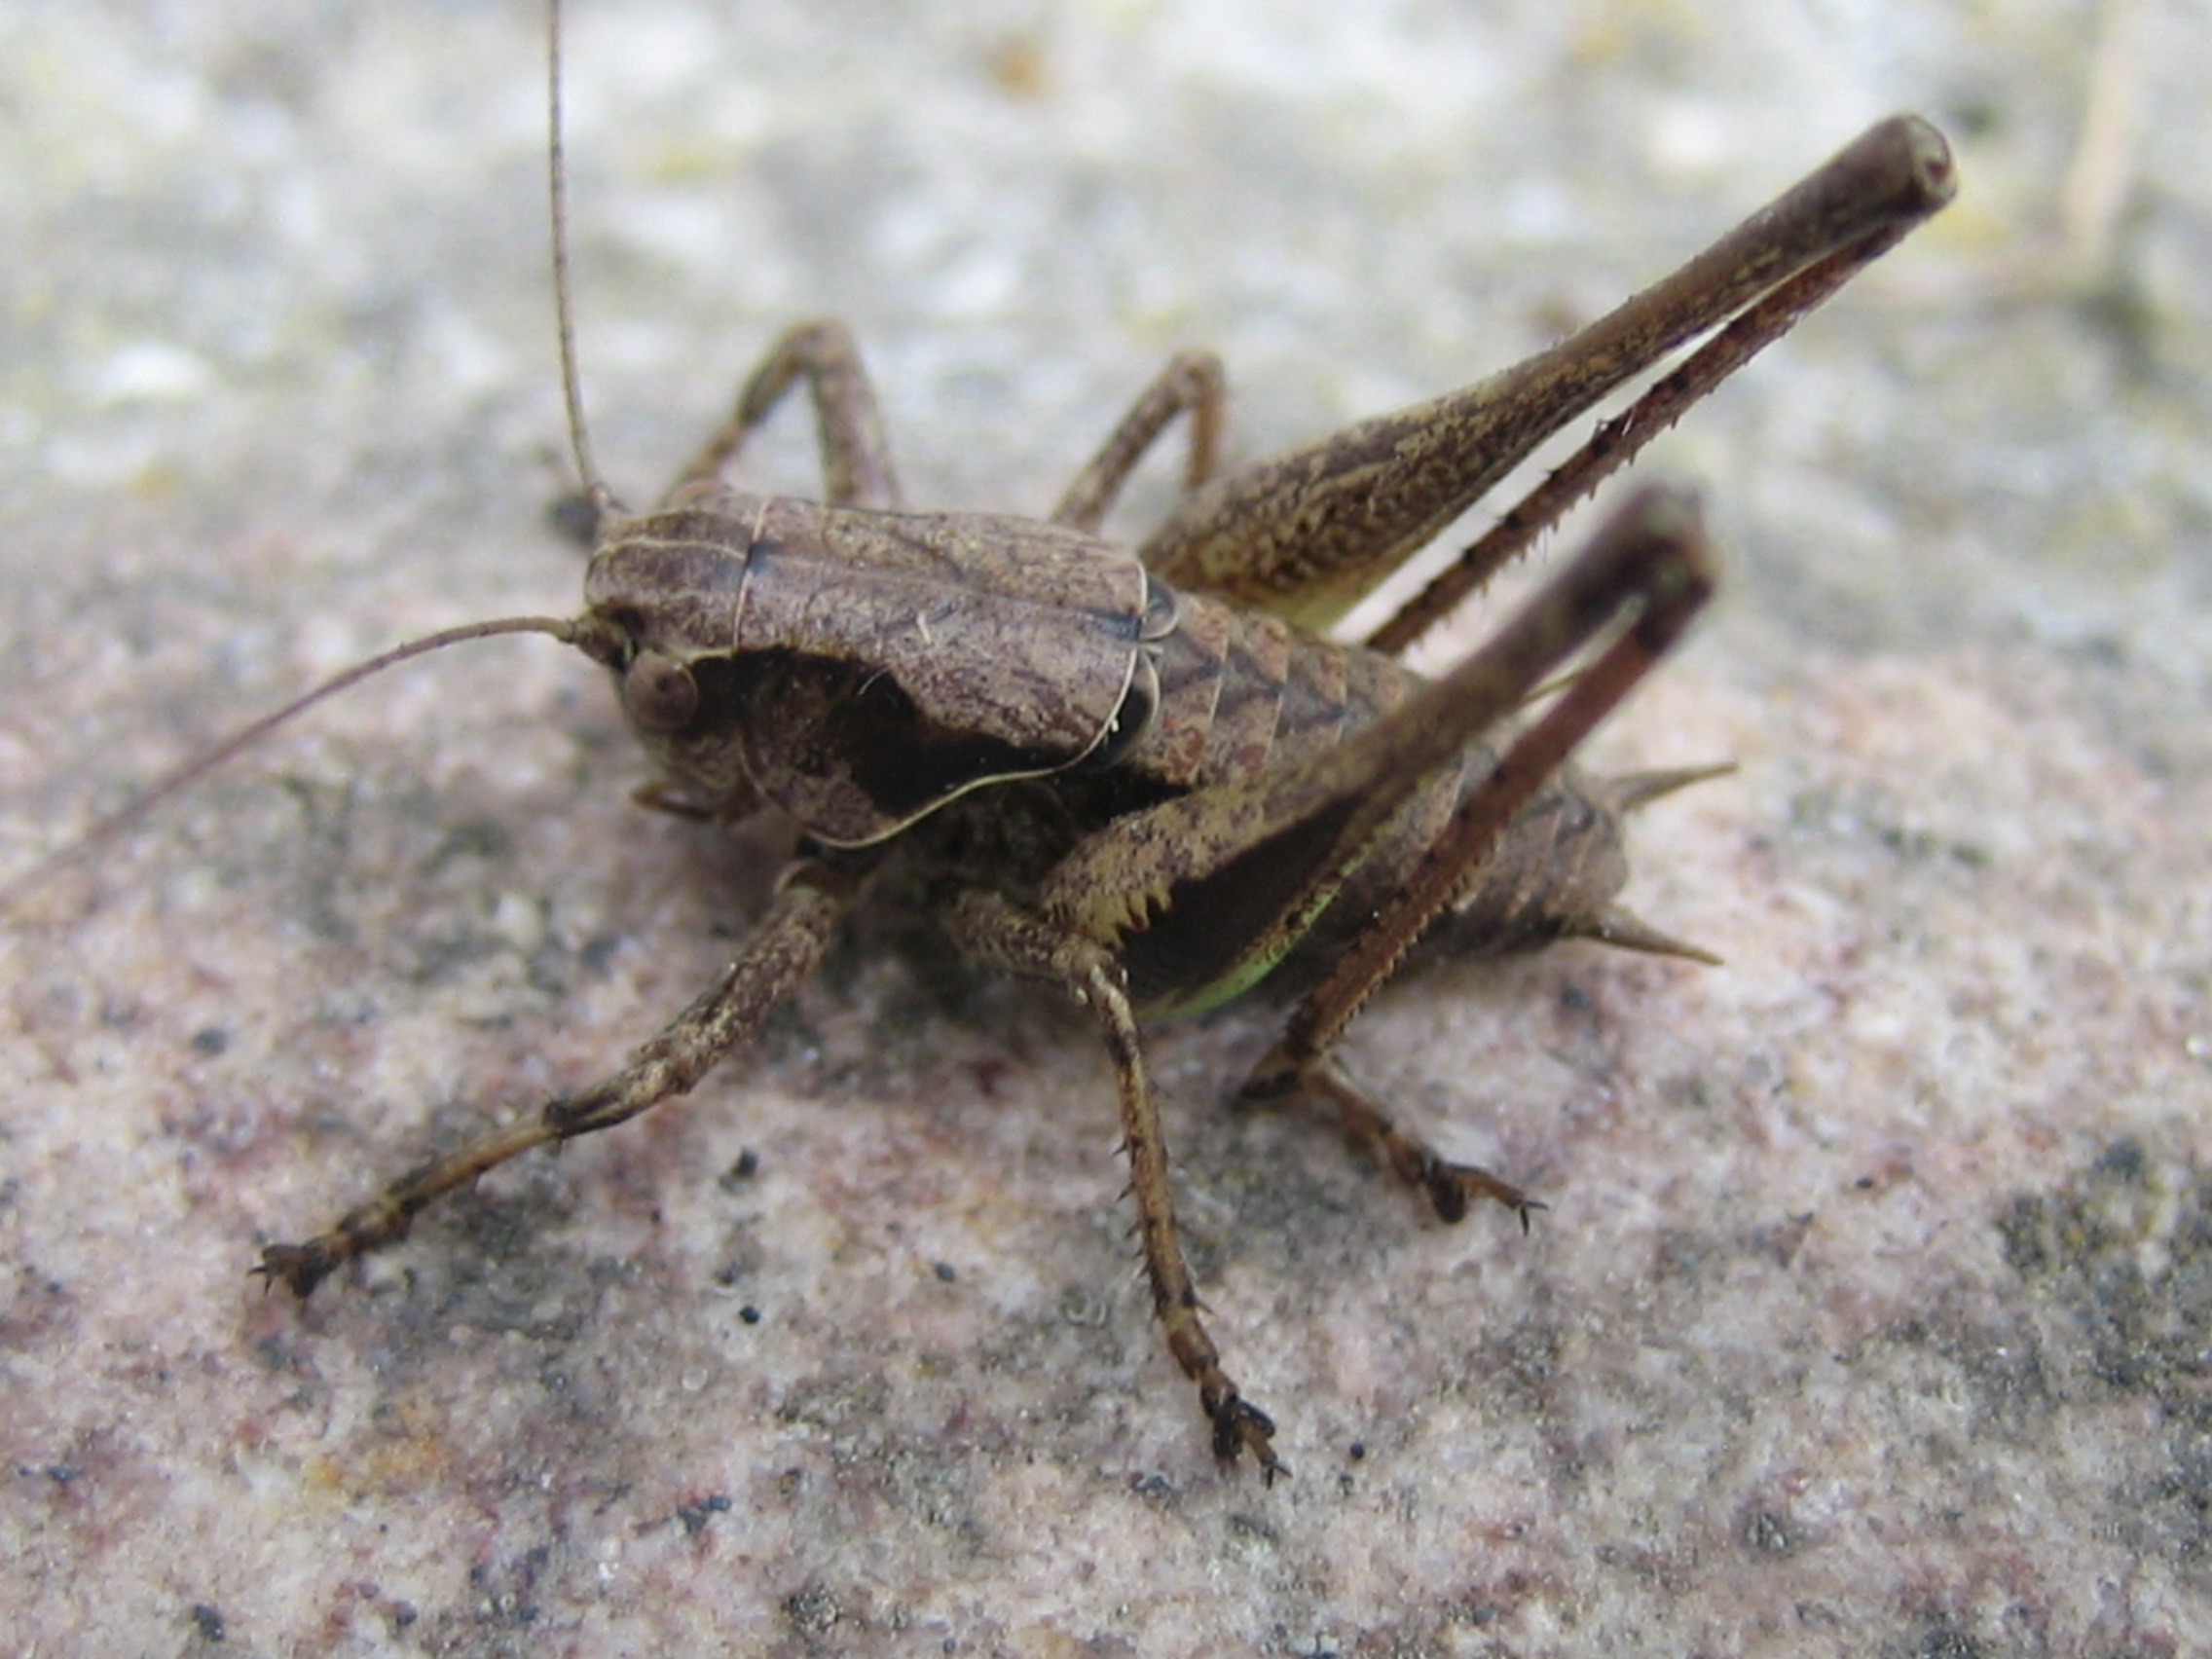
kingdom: Animalia
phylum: Arthropoda
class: Insecta
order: Orthoptera
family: Tettigoniidae
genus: Pholidoptera
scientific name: Pholidoptera griseoaptera
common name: Buskgræshoppe
